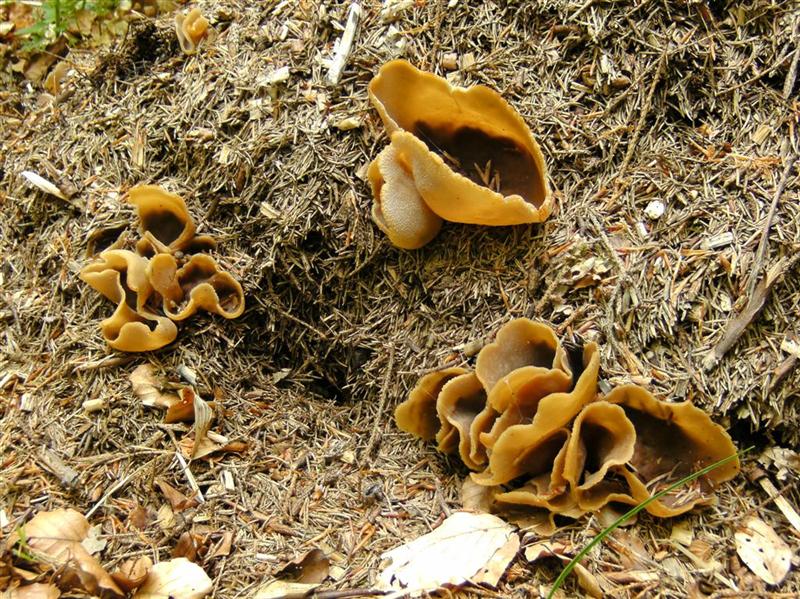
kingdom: Fungi
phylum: Ascomycota
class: Pezizomycetes
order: Pezizales
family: Pezizaceae
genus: Peziza
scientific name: Peziza arvernensis
